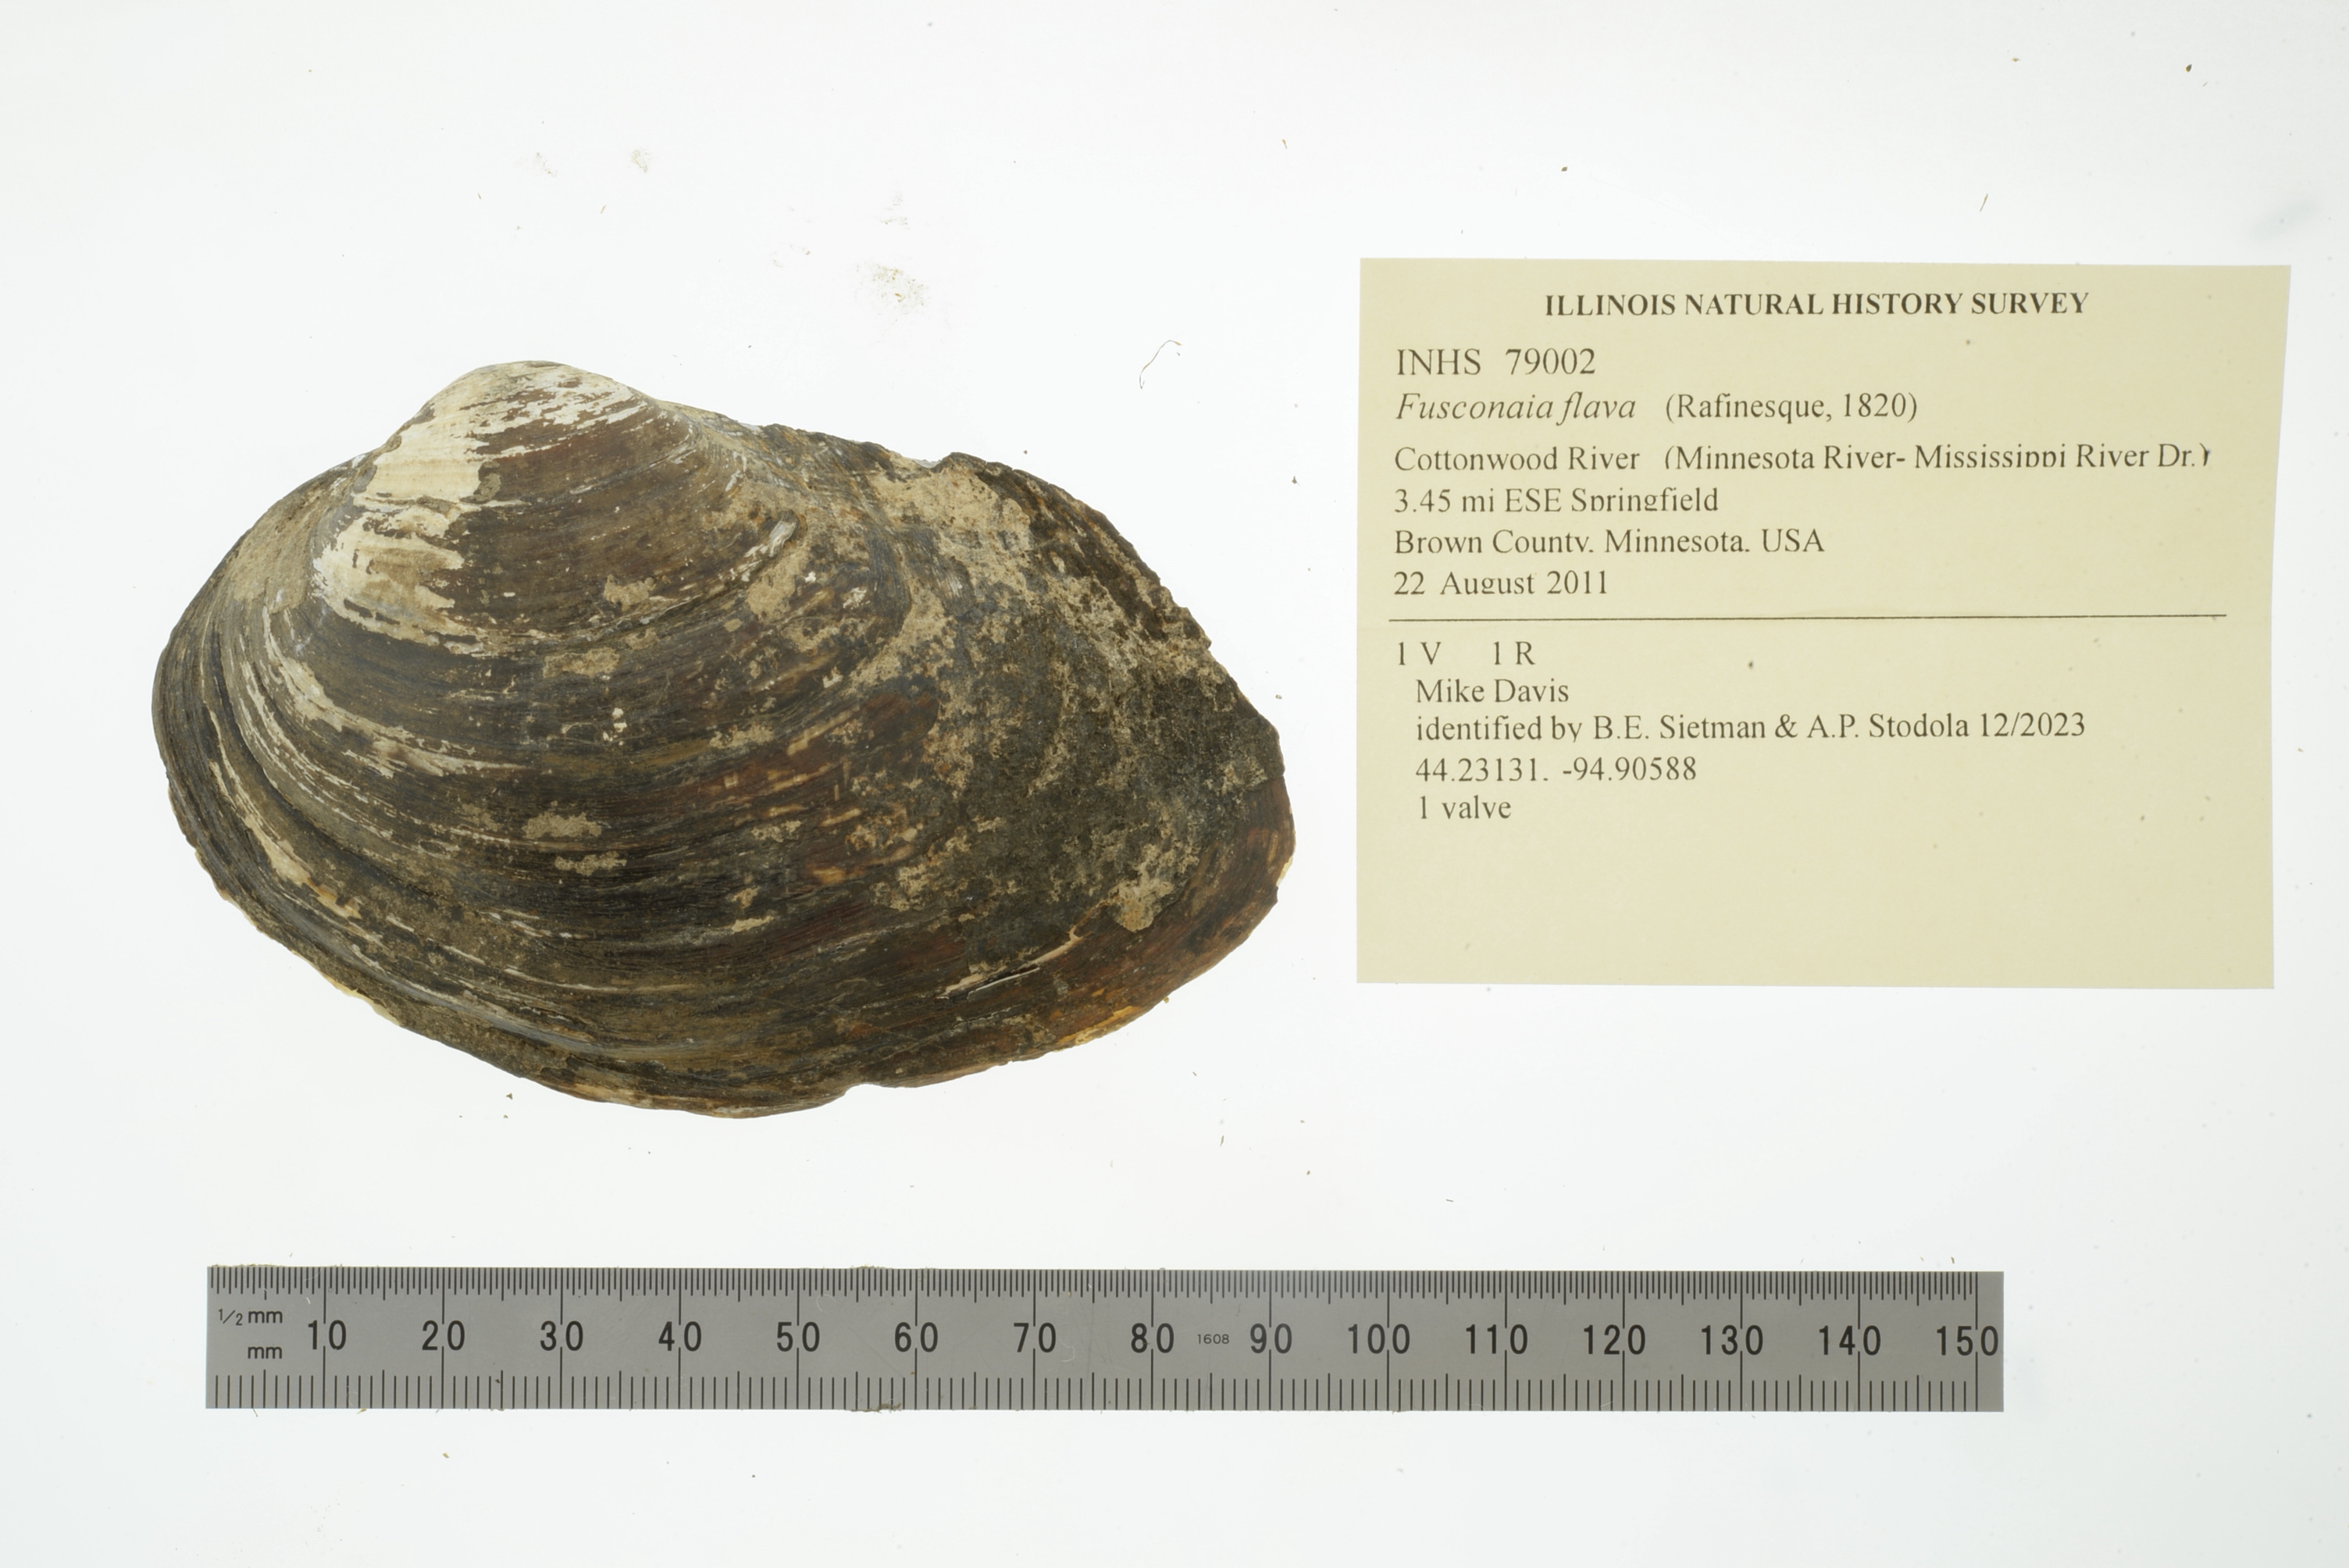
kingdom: Animalia
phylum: Mollusca
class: Bivalvia
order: Unionida
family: Unionidae
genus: Fusconaia
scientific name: Fusconaia flava
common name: Wabash pigtoe
